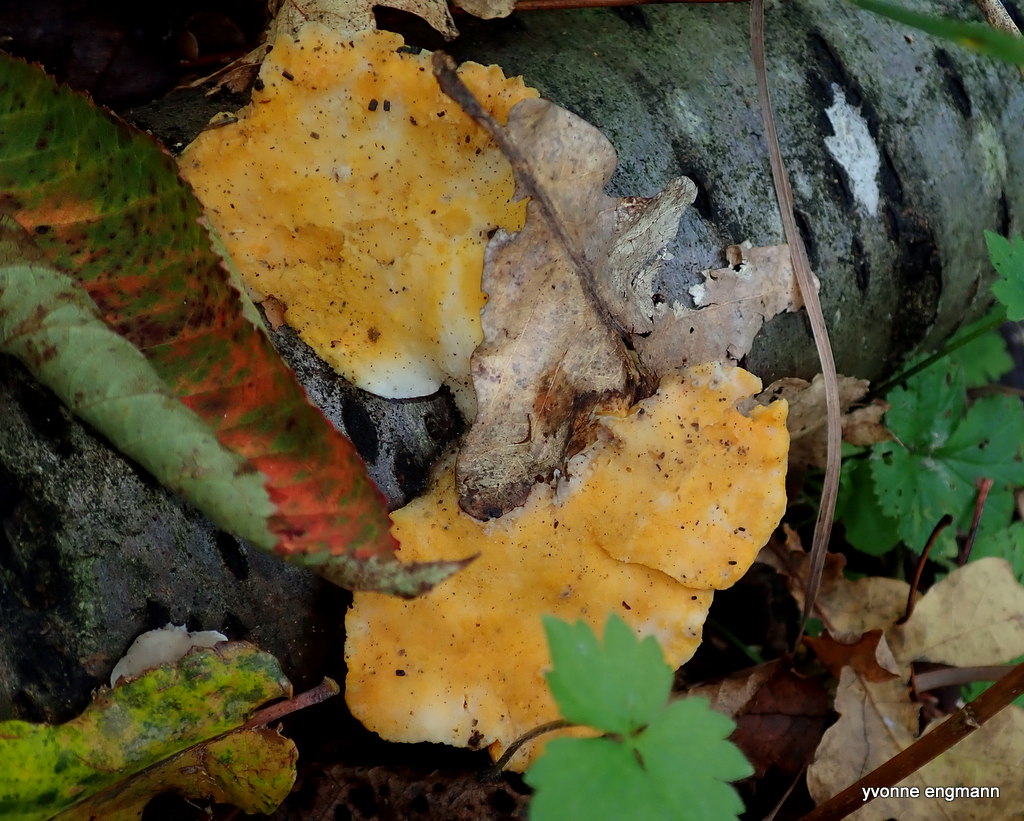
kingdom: Fungi
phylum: Ascomycota
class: Sordariomycetes
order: Hypocreales
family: Hypocreaceae
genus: Protocrea
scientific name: Protocrea pallida
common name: bleg kødkerne
